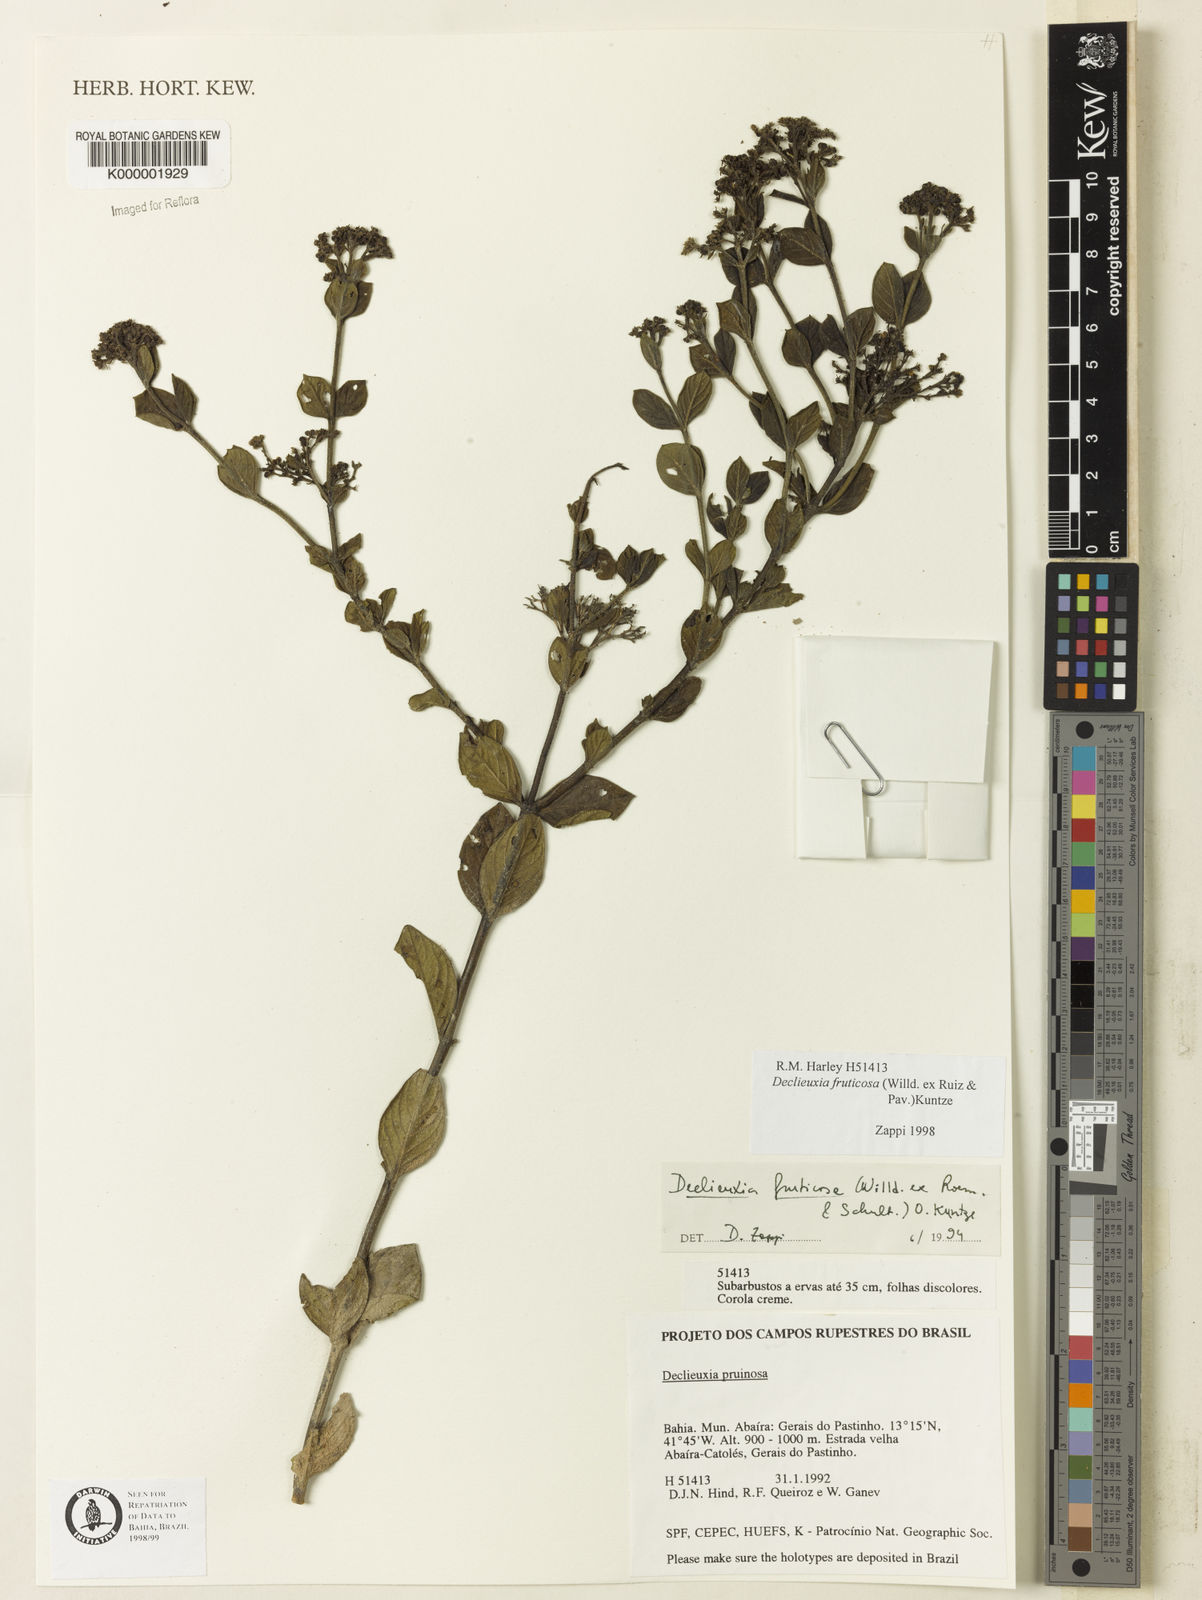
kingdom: Plantae
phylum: Tracheophyta
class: Magnoliopsida
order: Gentianales
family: Rubiaceae
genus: Declieuxia
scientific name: Declieuxia fruticosa
